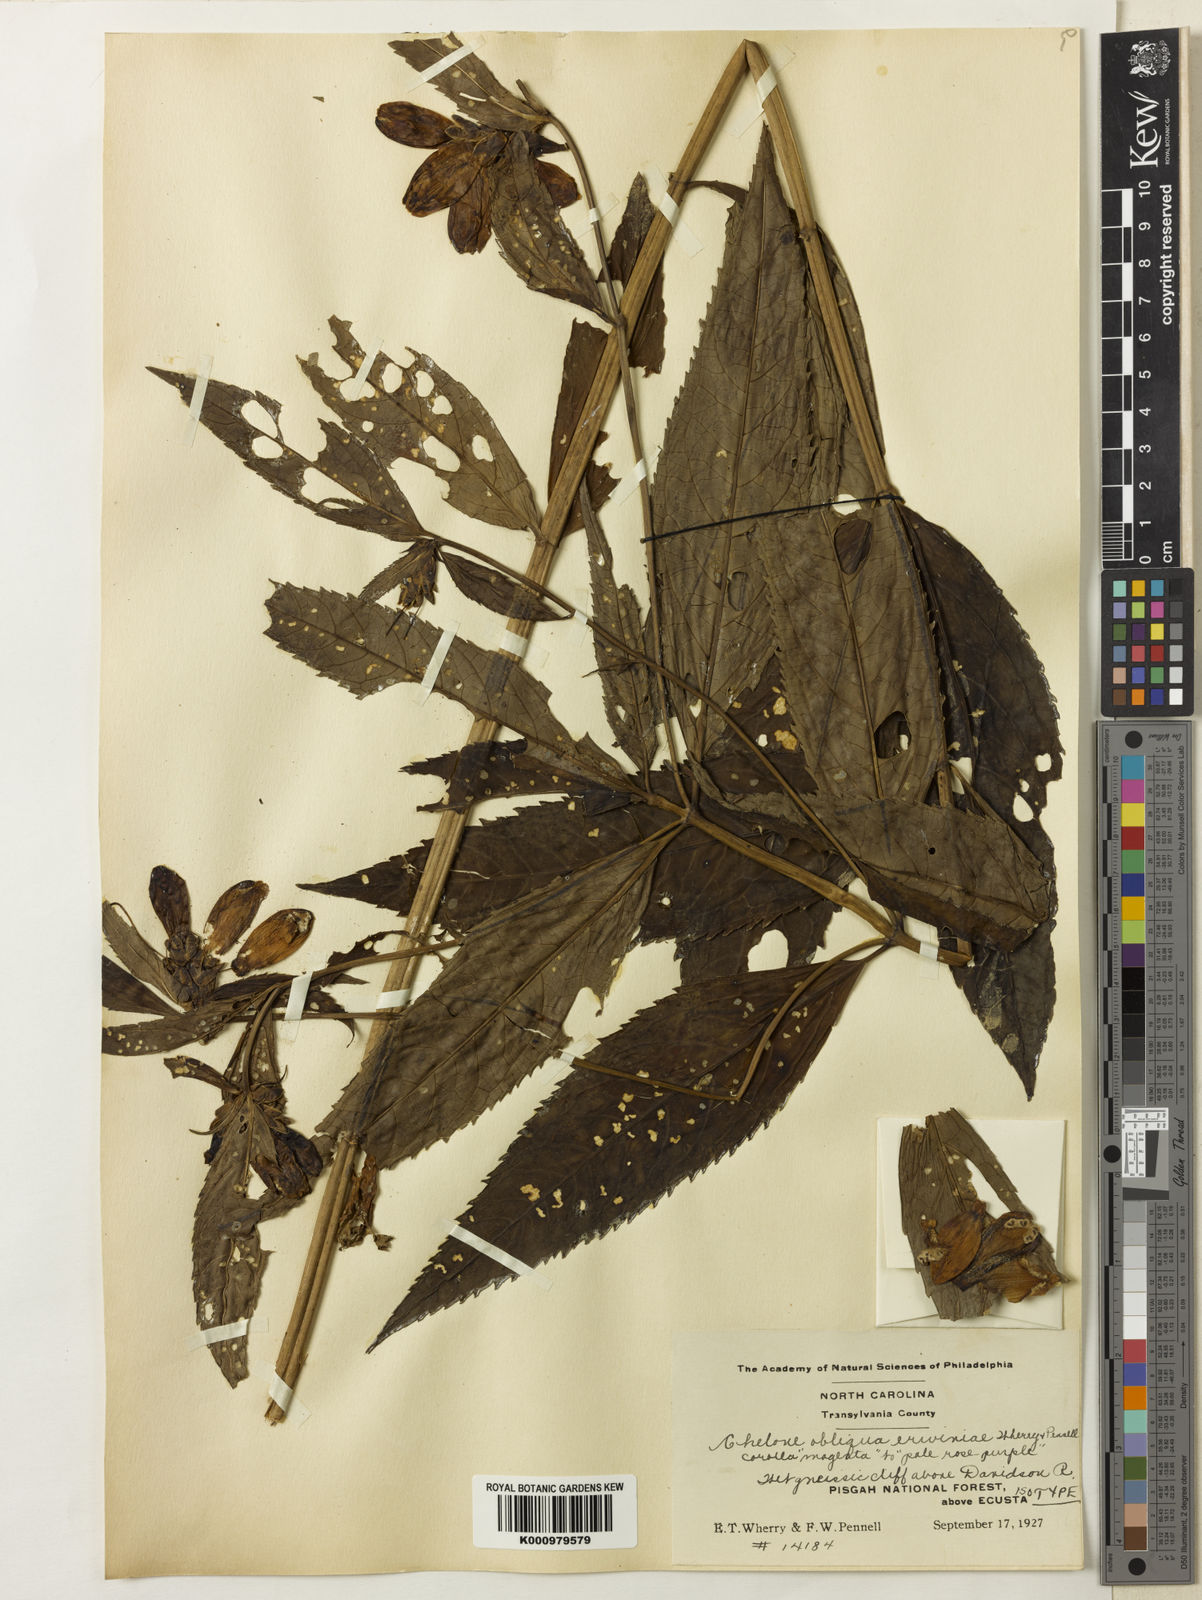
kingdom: Plantae
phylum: Tracheophyta
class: Magnoliopsida
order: Lamiales
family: Plantaginaceae
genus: Chelone
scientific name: Chelone obliqua
